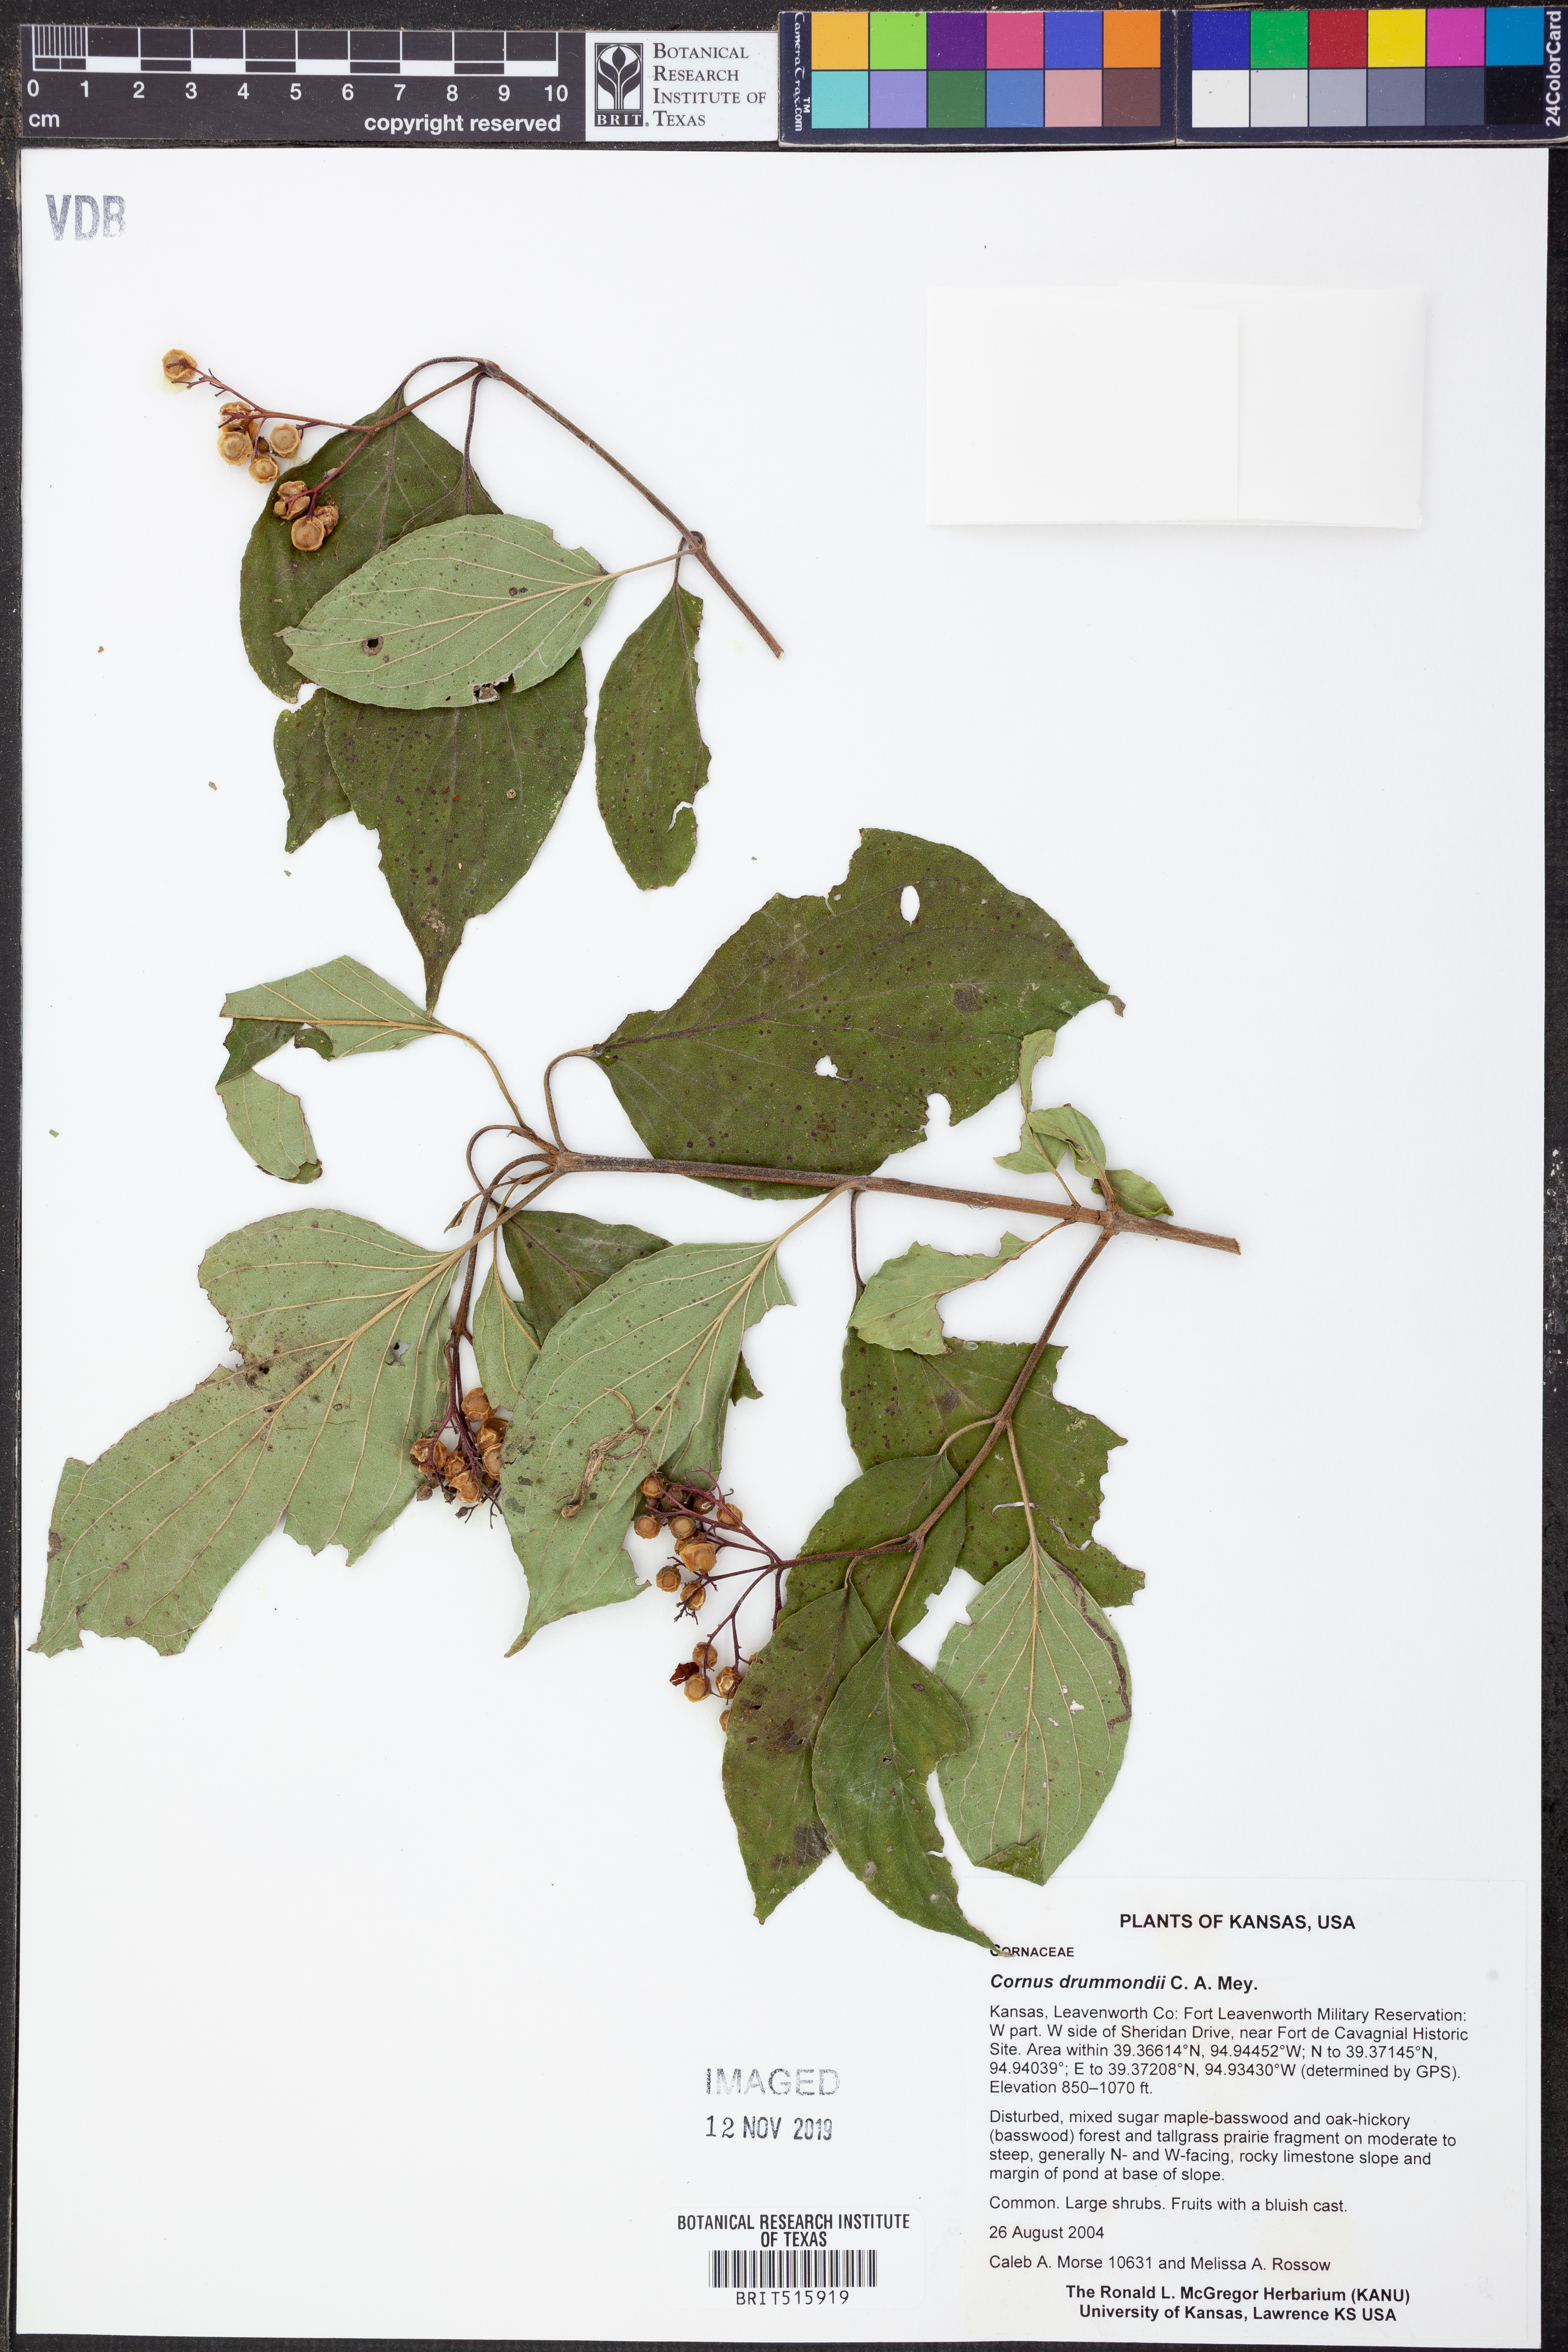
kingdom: Plantae
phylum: Tracheophyta
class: Magnoliopsida
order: Cornales
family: Cornaceae
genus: Cornus
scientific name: Cornus drummondii
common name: Rough-leaf dogwood
